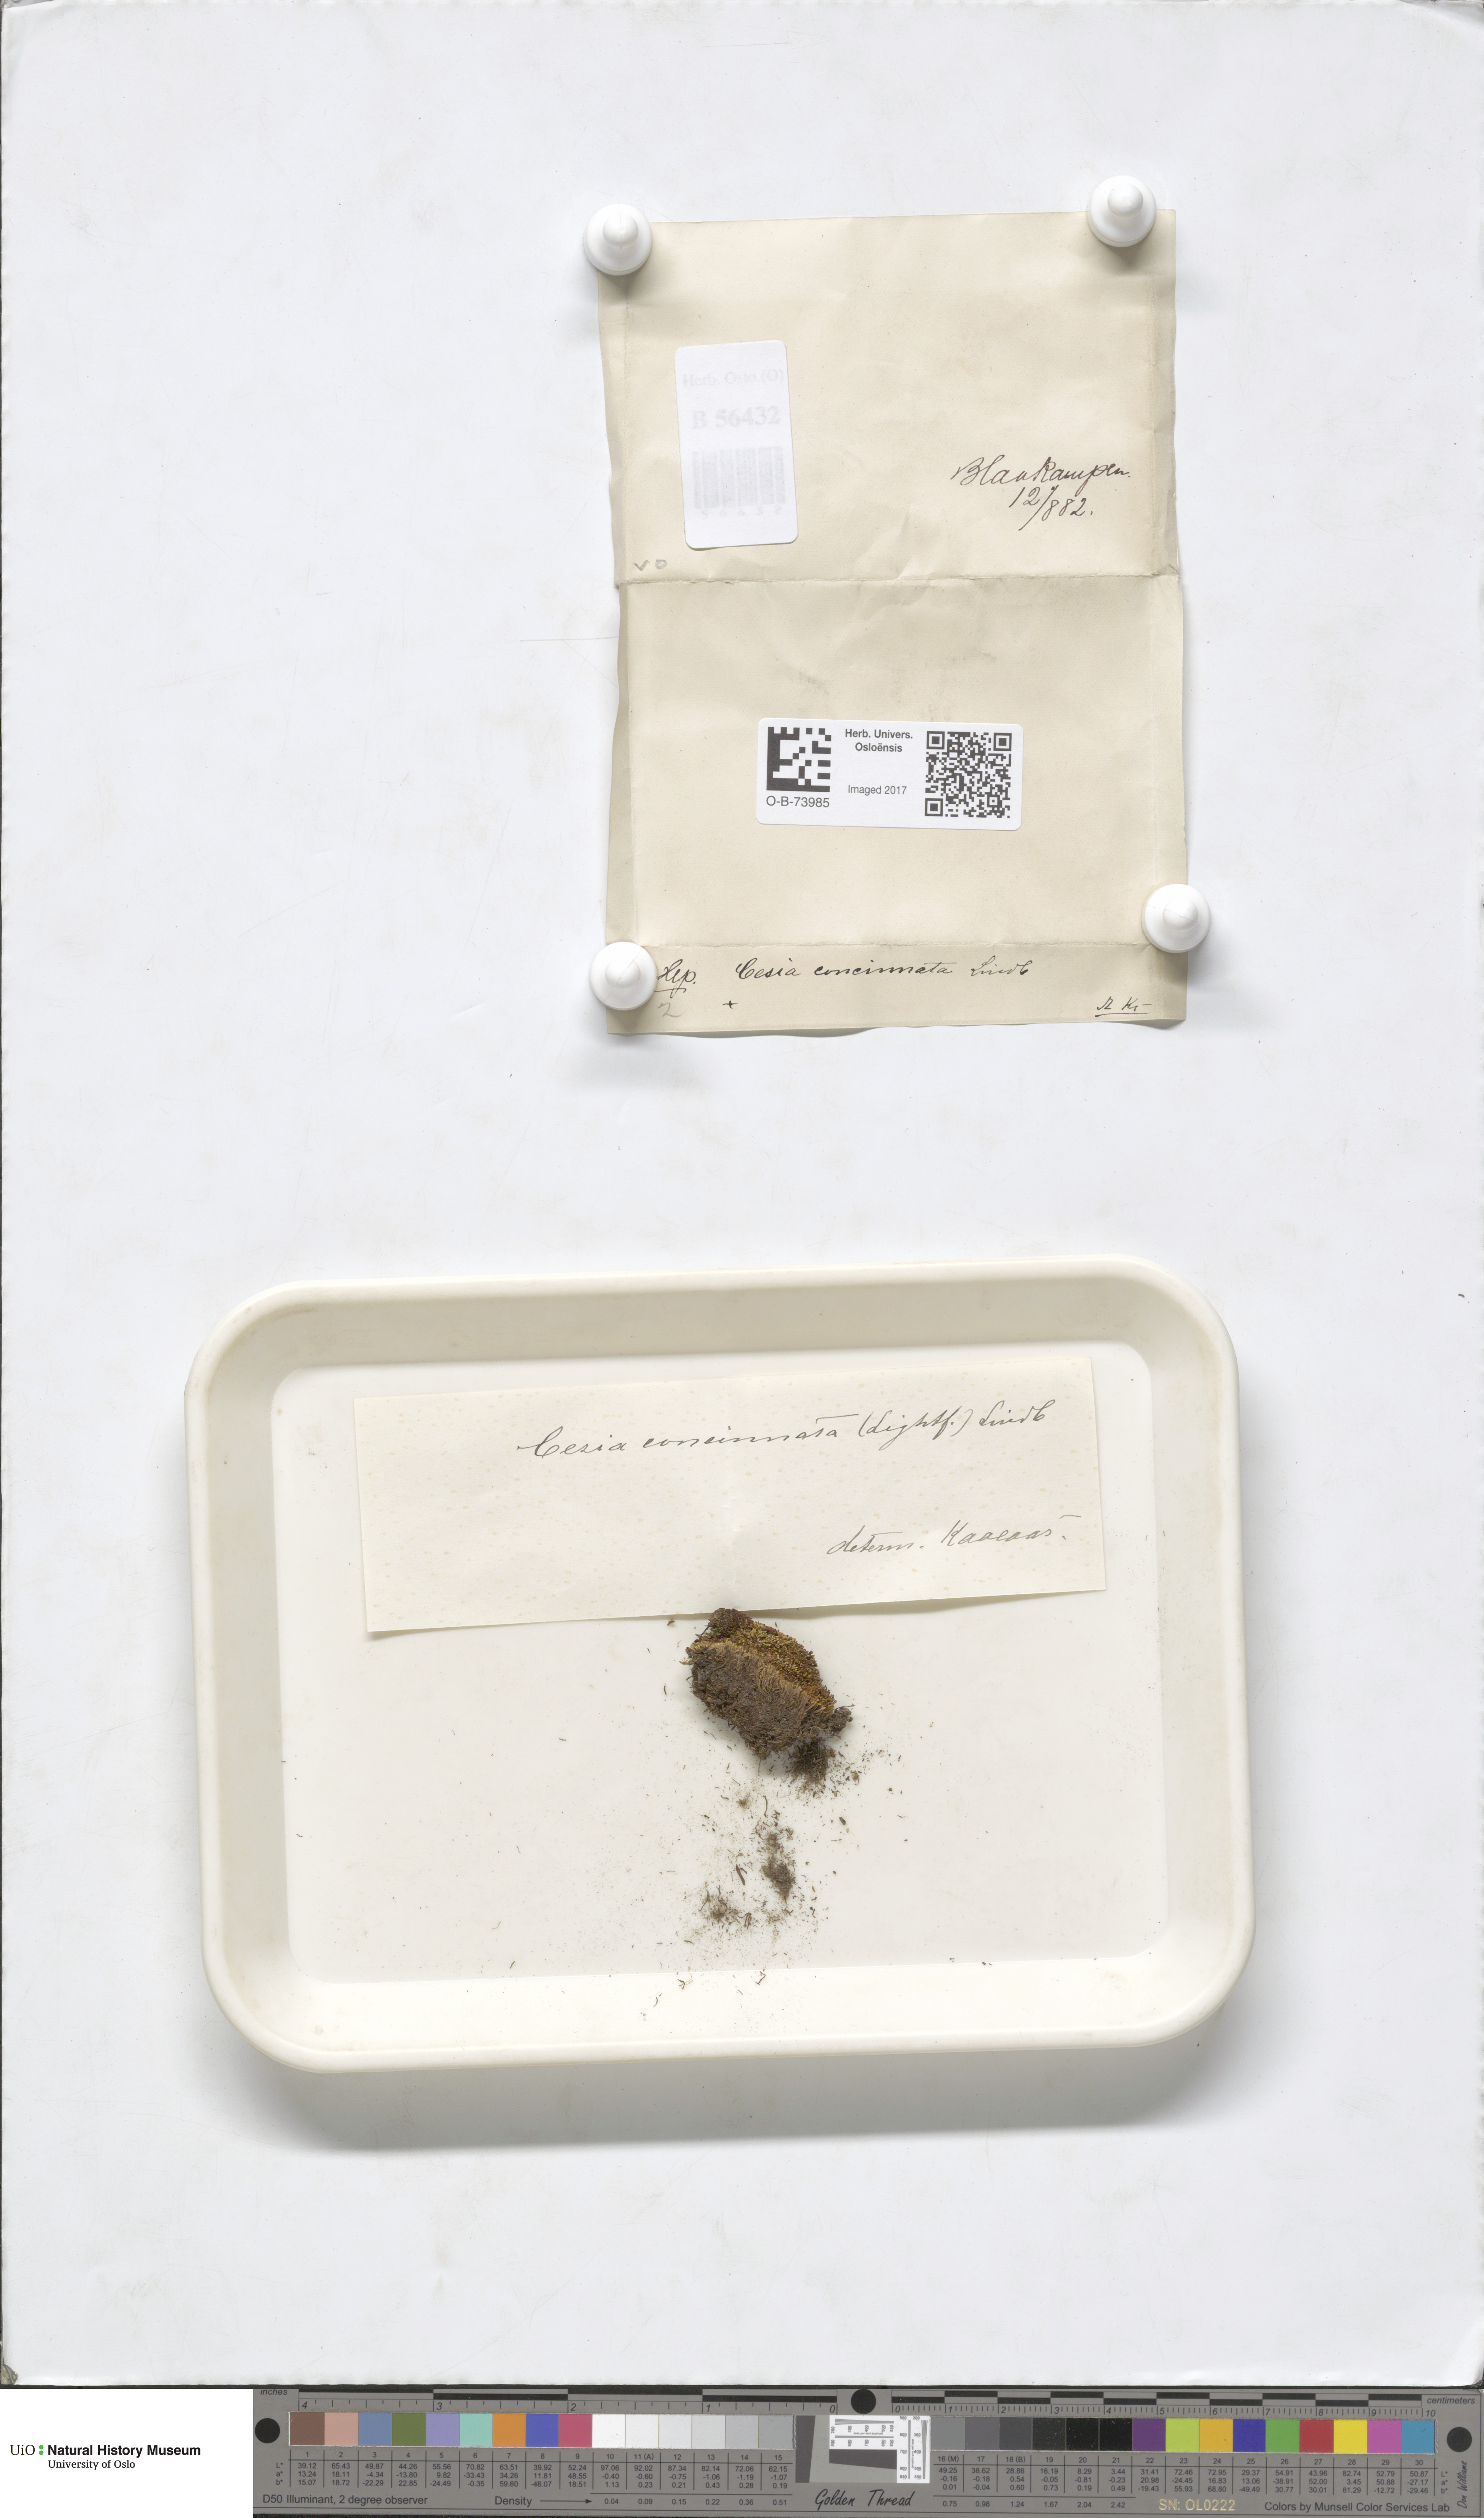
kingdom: Plantae
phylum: Marchantiophyta
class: Jungermanniopsida
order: Jungermanniales
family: Gymnomitriaceae
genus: Marsupella
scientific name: Marsupella apiculata
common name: Pointed frostwort
